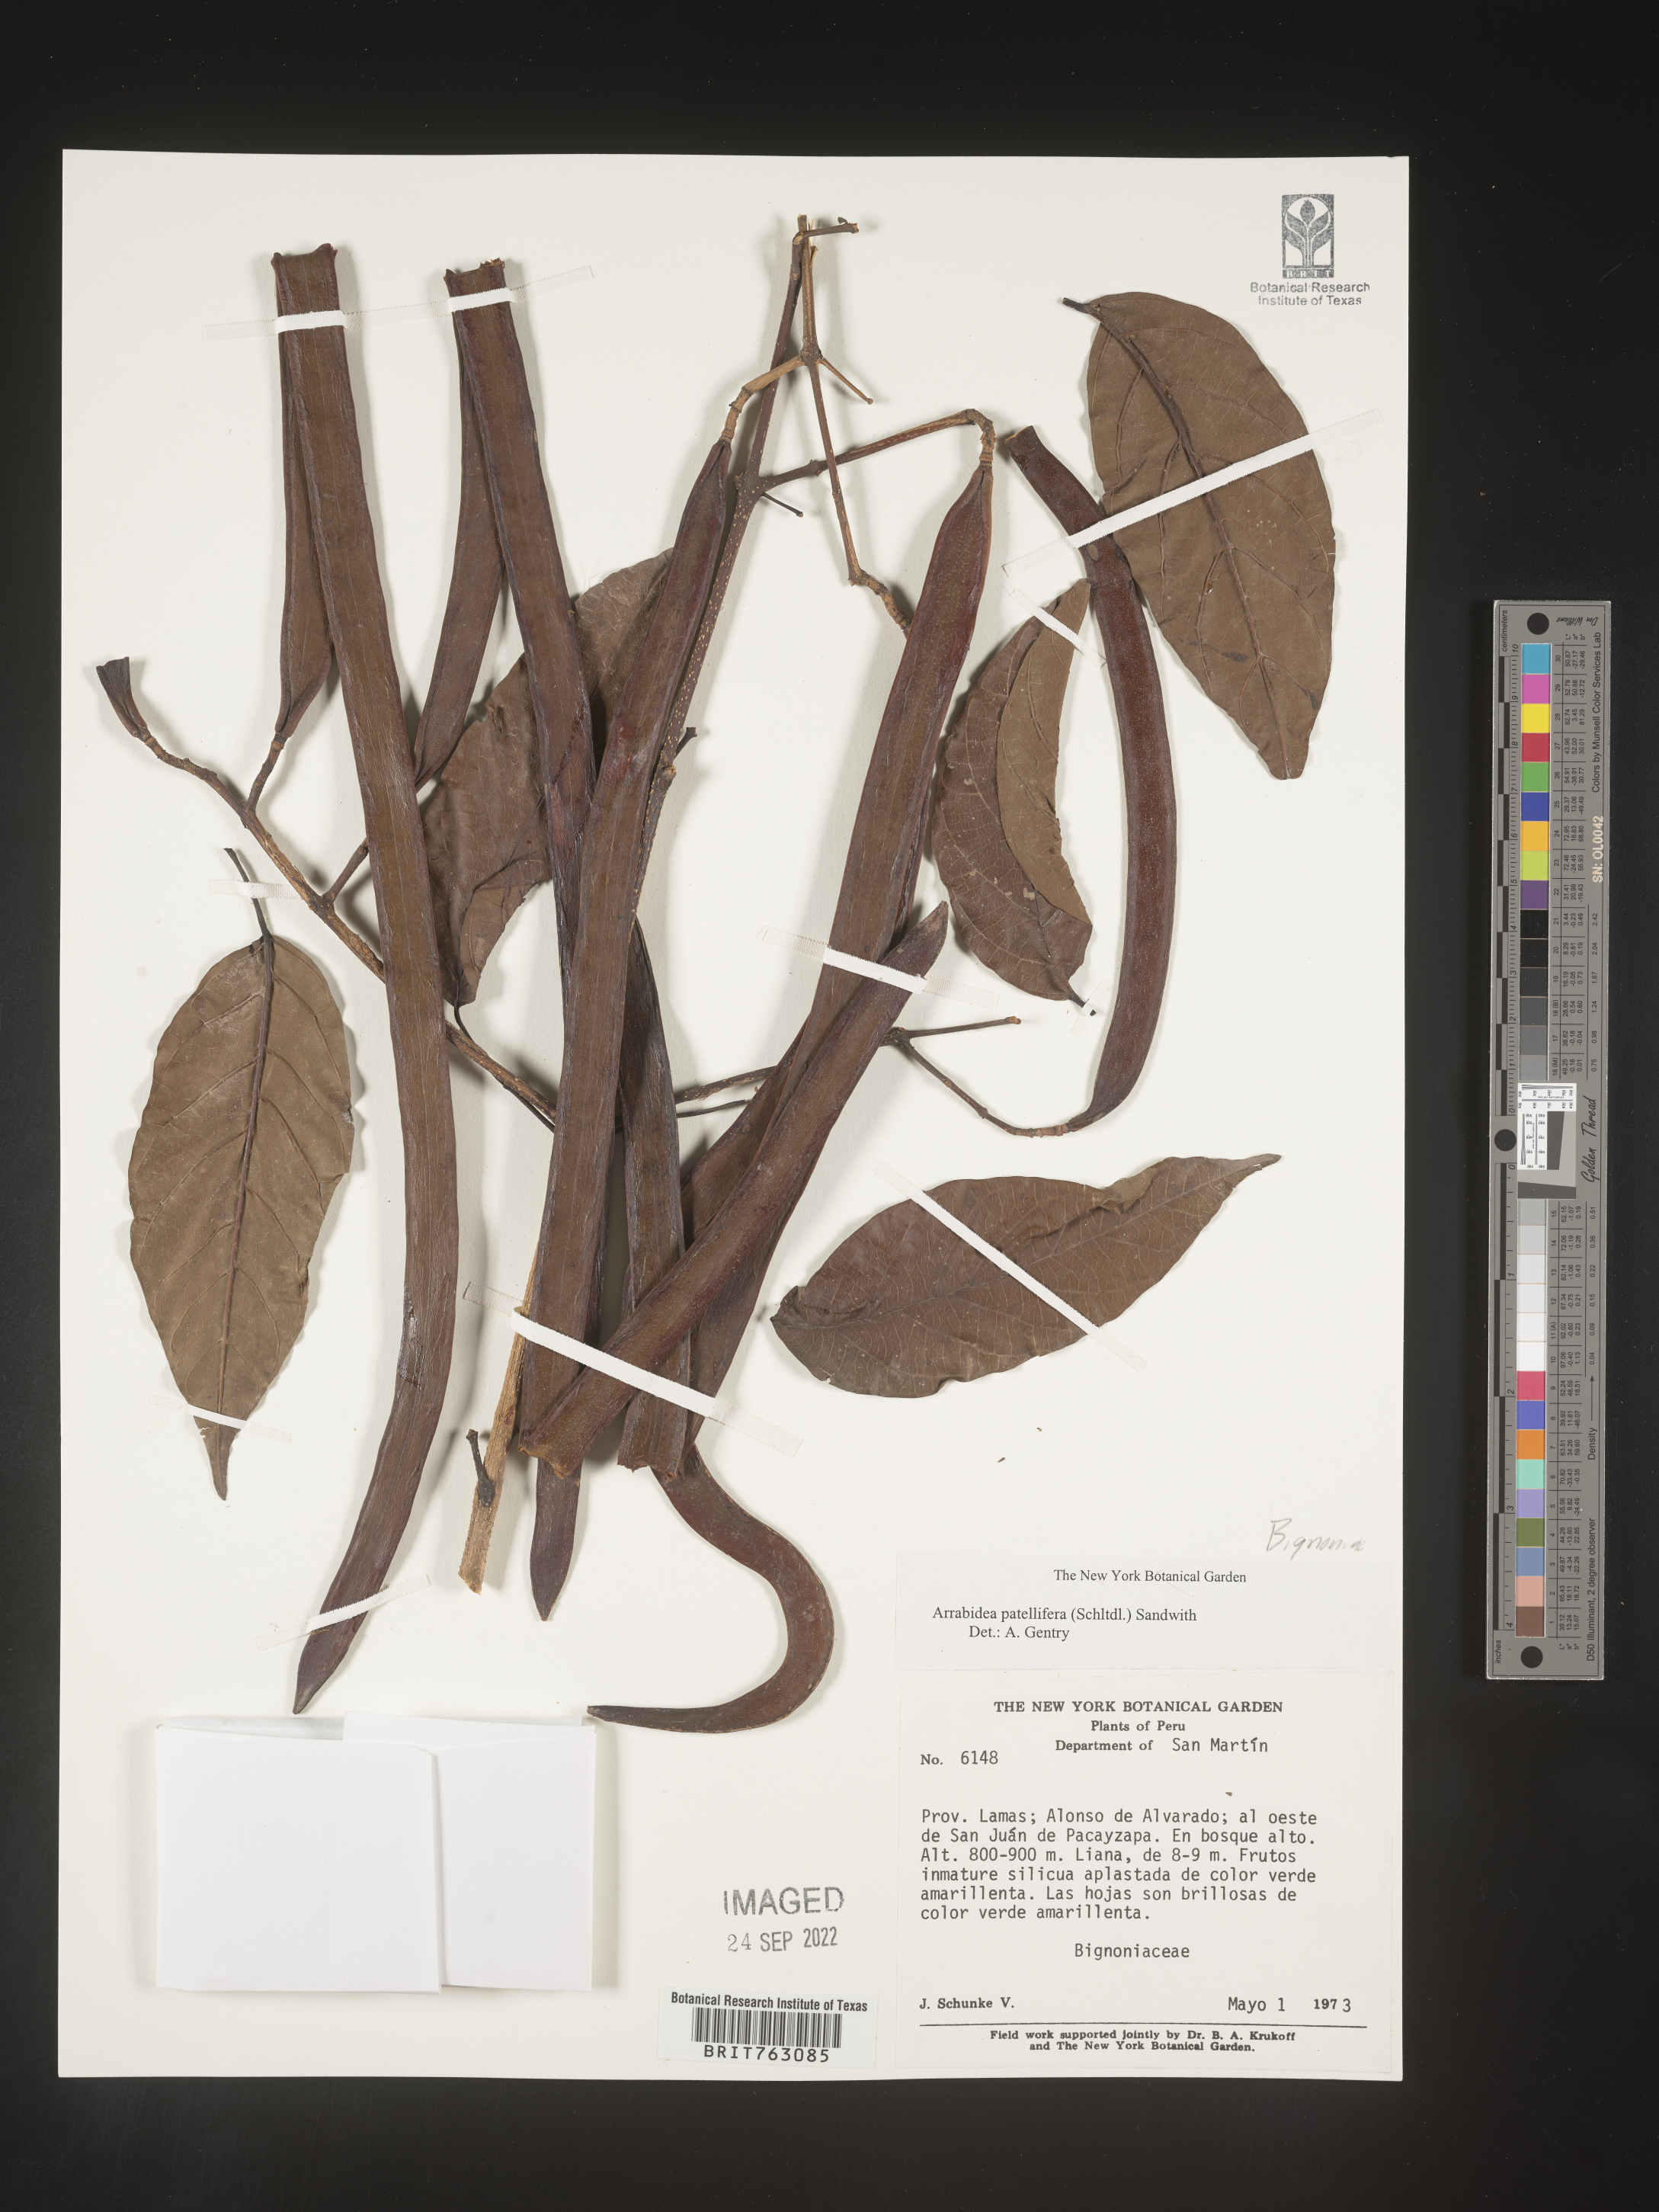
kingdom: Plantae
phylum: Tracheophyta
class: Magnoliopsida
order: Rosales
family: Rhamnaceae
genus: Arrabidaea
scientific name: Arrabidaea
